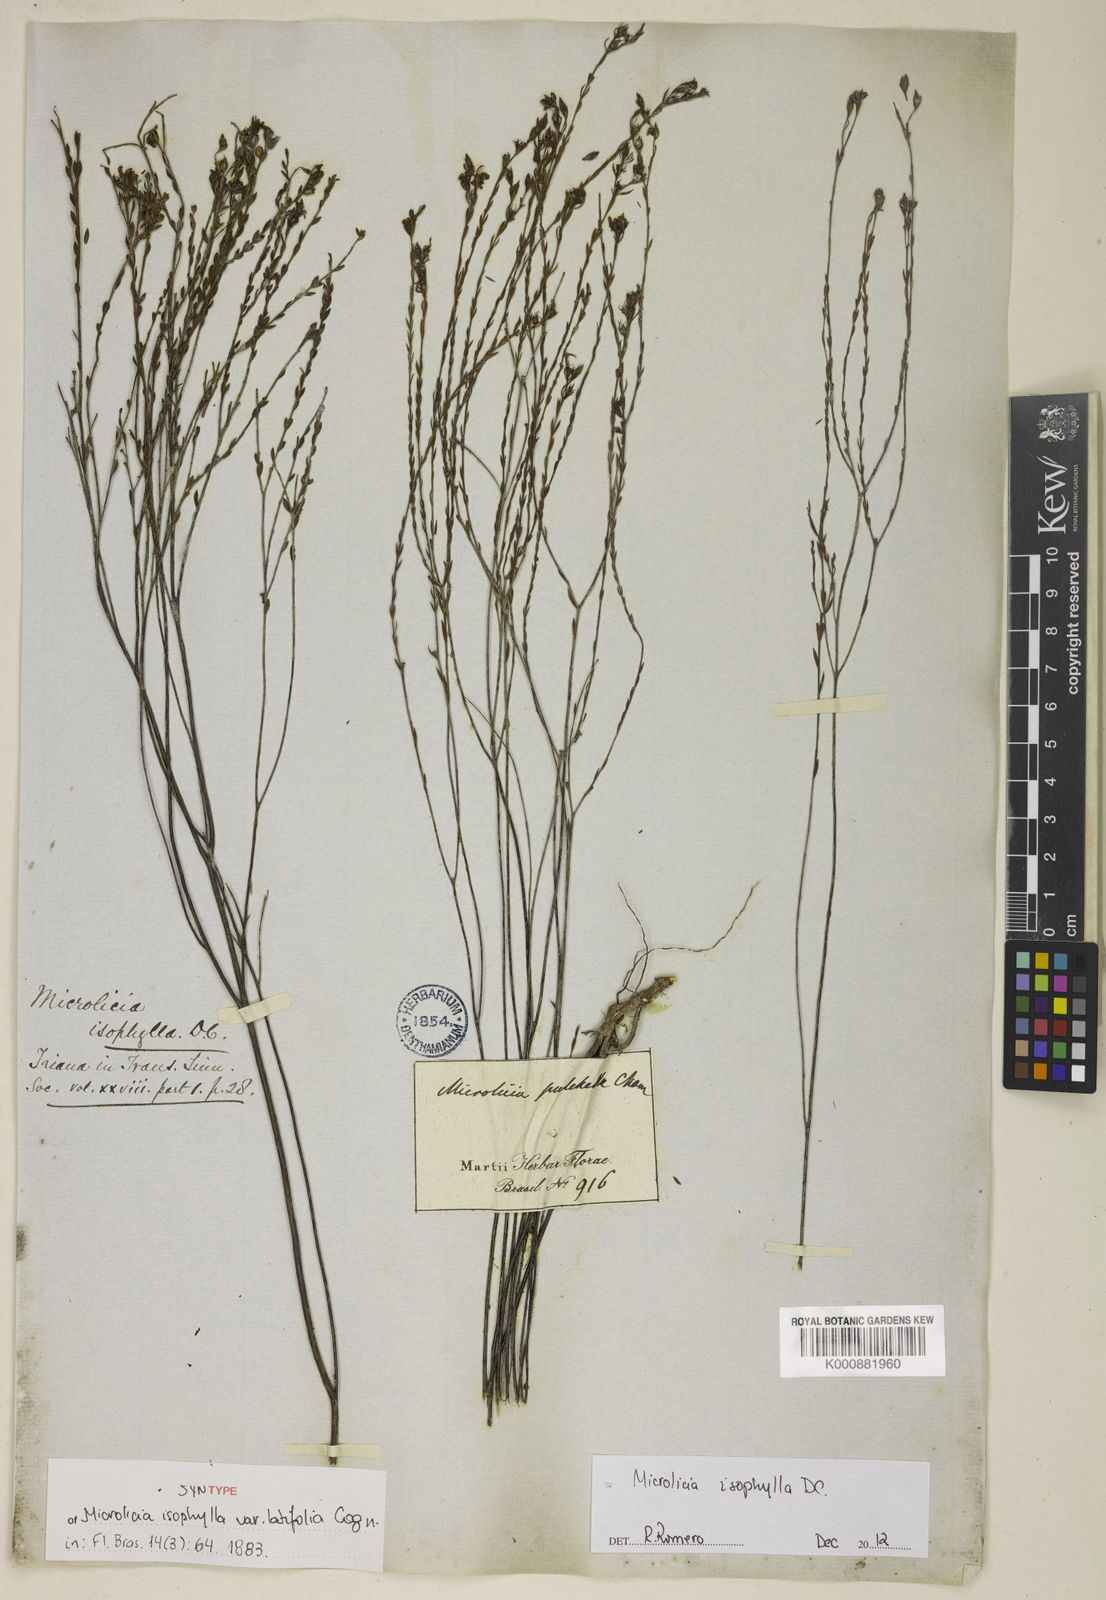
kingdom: Plantae
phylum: Tracheophyta
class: Magnoliopsida
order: Myrtales
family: Melastomataceae
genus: Microlicia
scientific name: Microlicia isophylla
